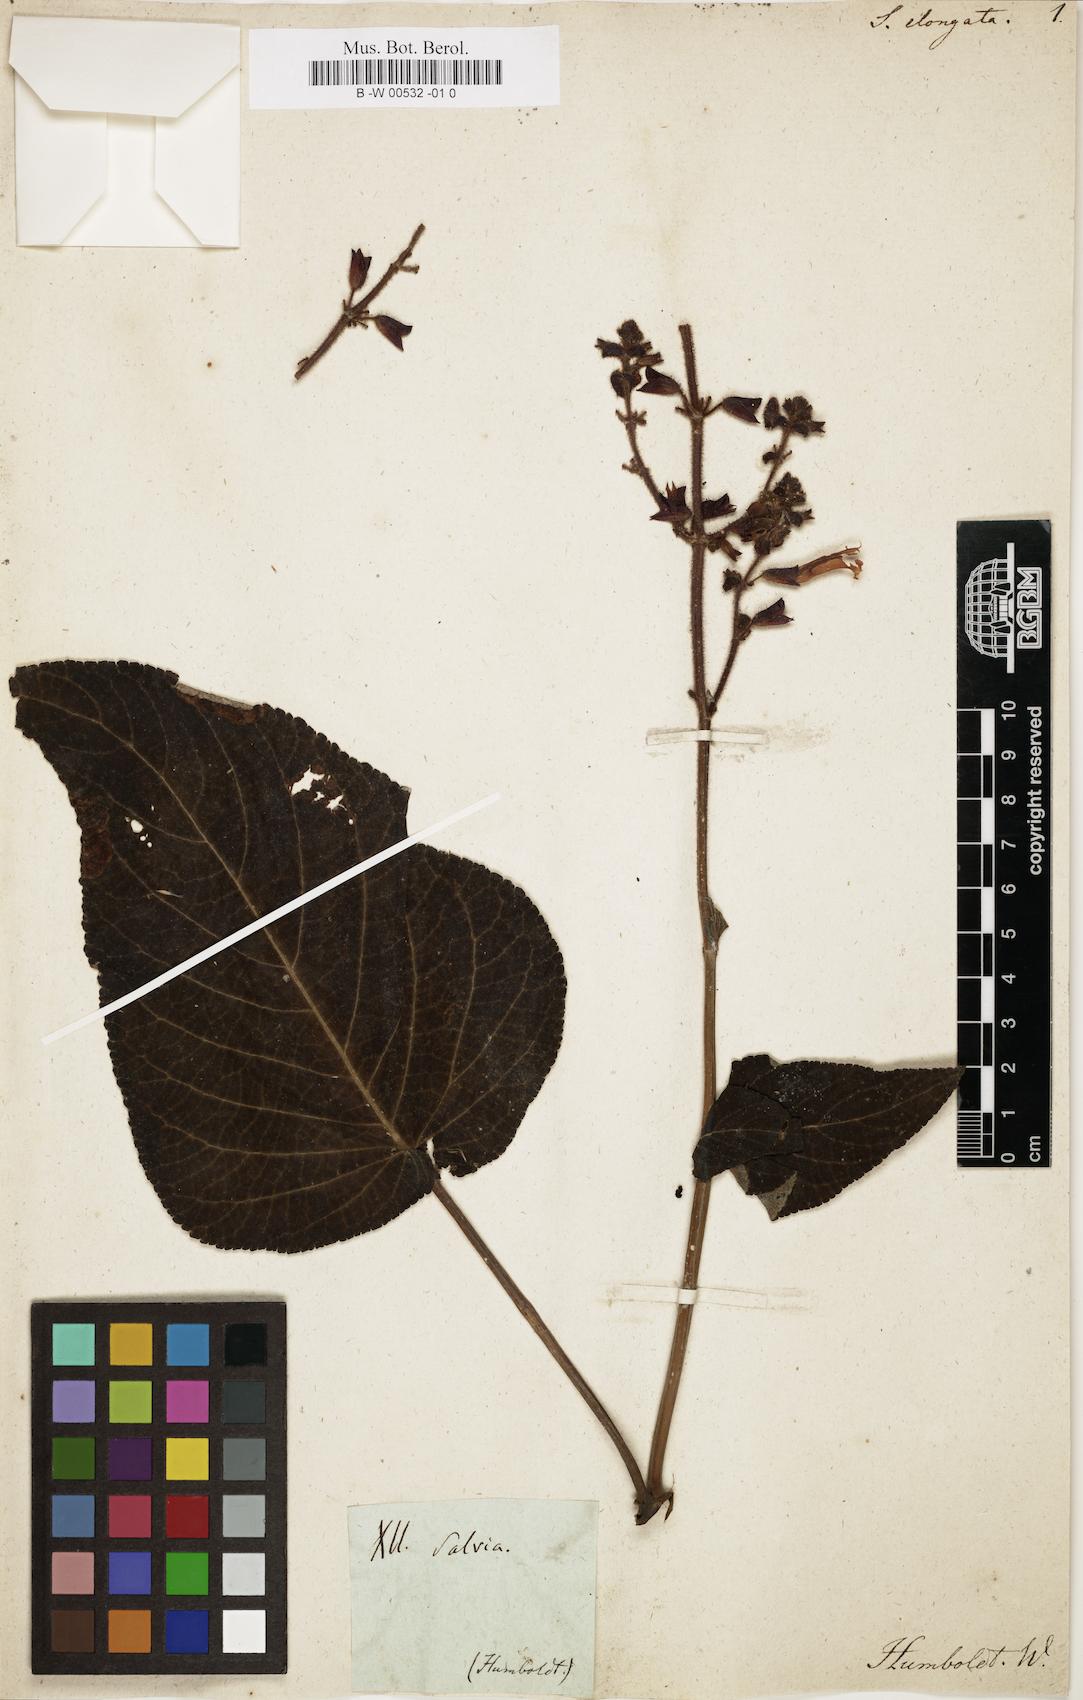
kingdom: Plantae
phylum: Tracheophyta
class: Magnoliopsida
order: Lamiales
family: Lamiaceae
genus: Salvia
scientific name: Salvia stachyoides
